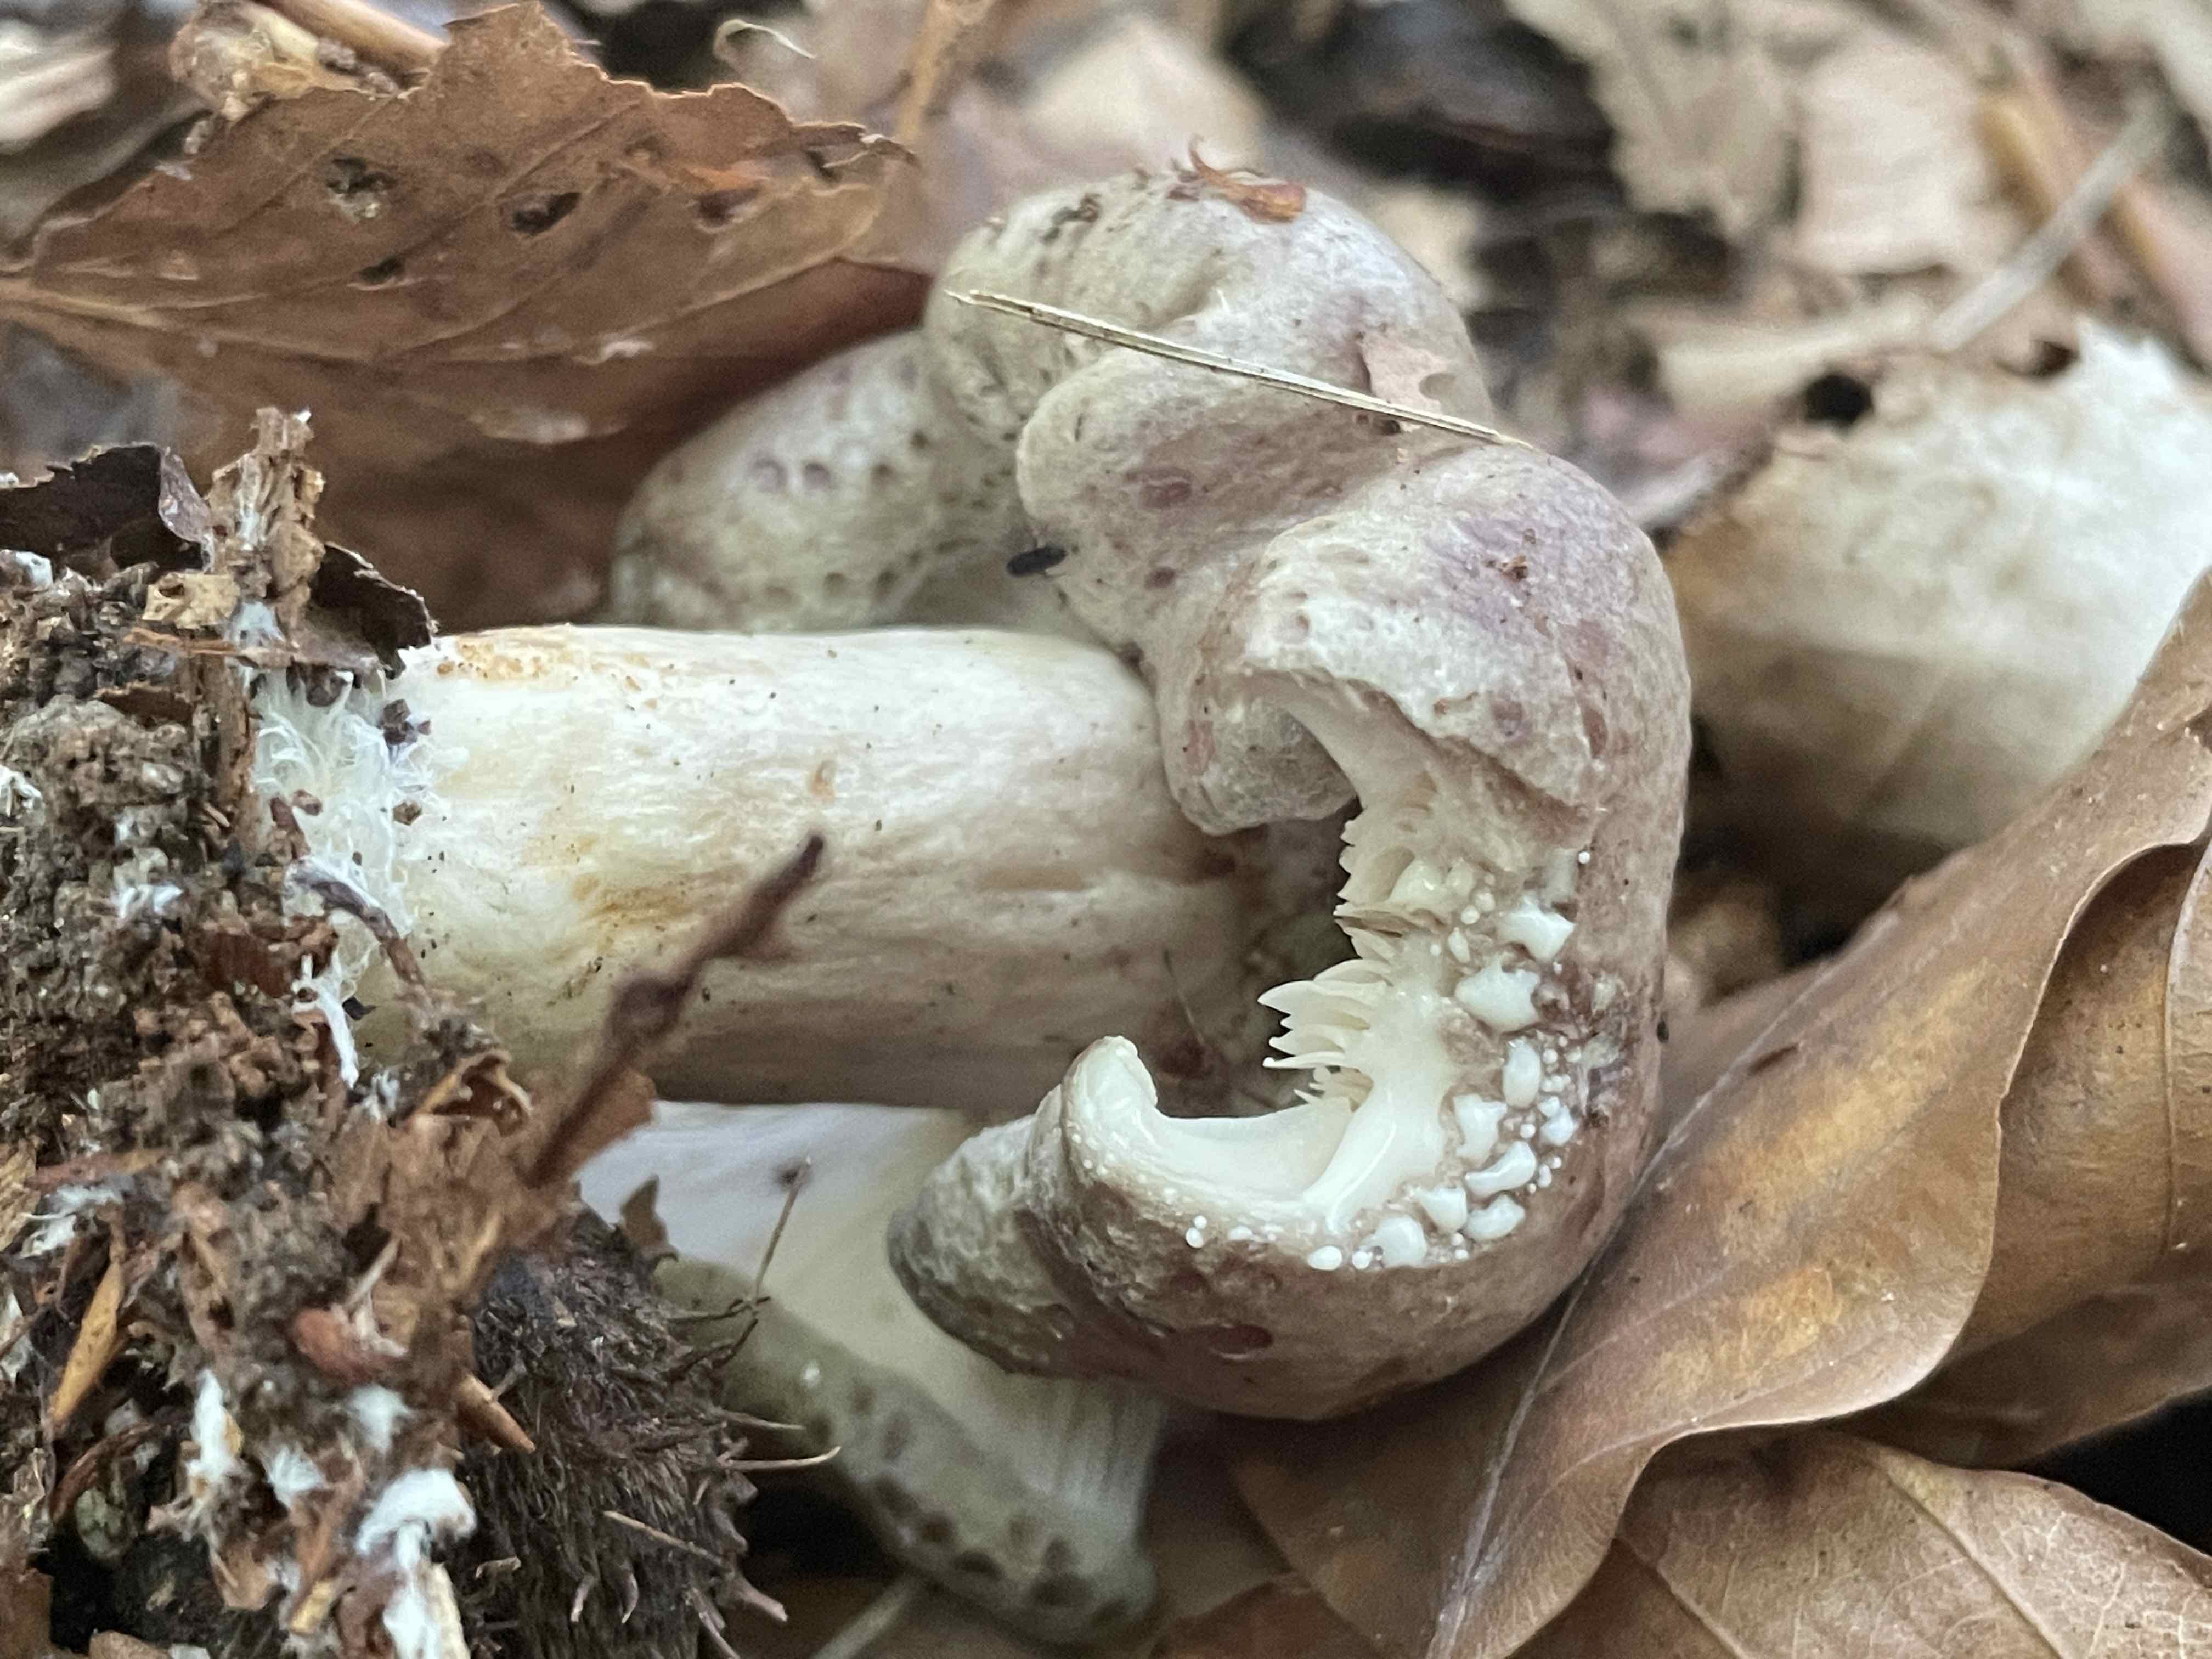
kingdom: Fungi
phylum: Basidiomycota
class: Agaricomycetes
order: Russulales
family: Russulaceae
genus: Lactarius
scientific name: Lactarius blennius
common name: dråbeplettet mælkehat
